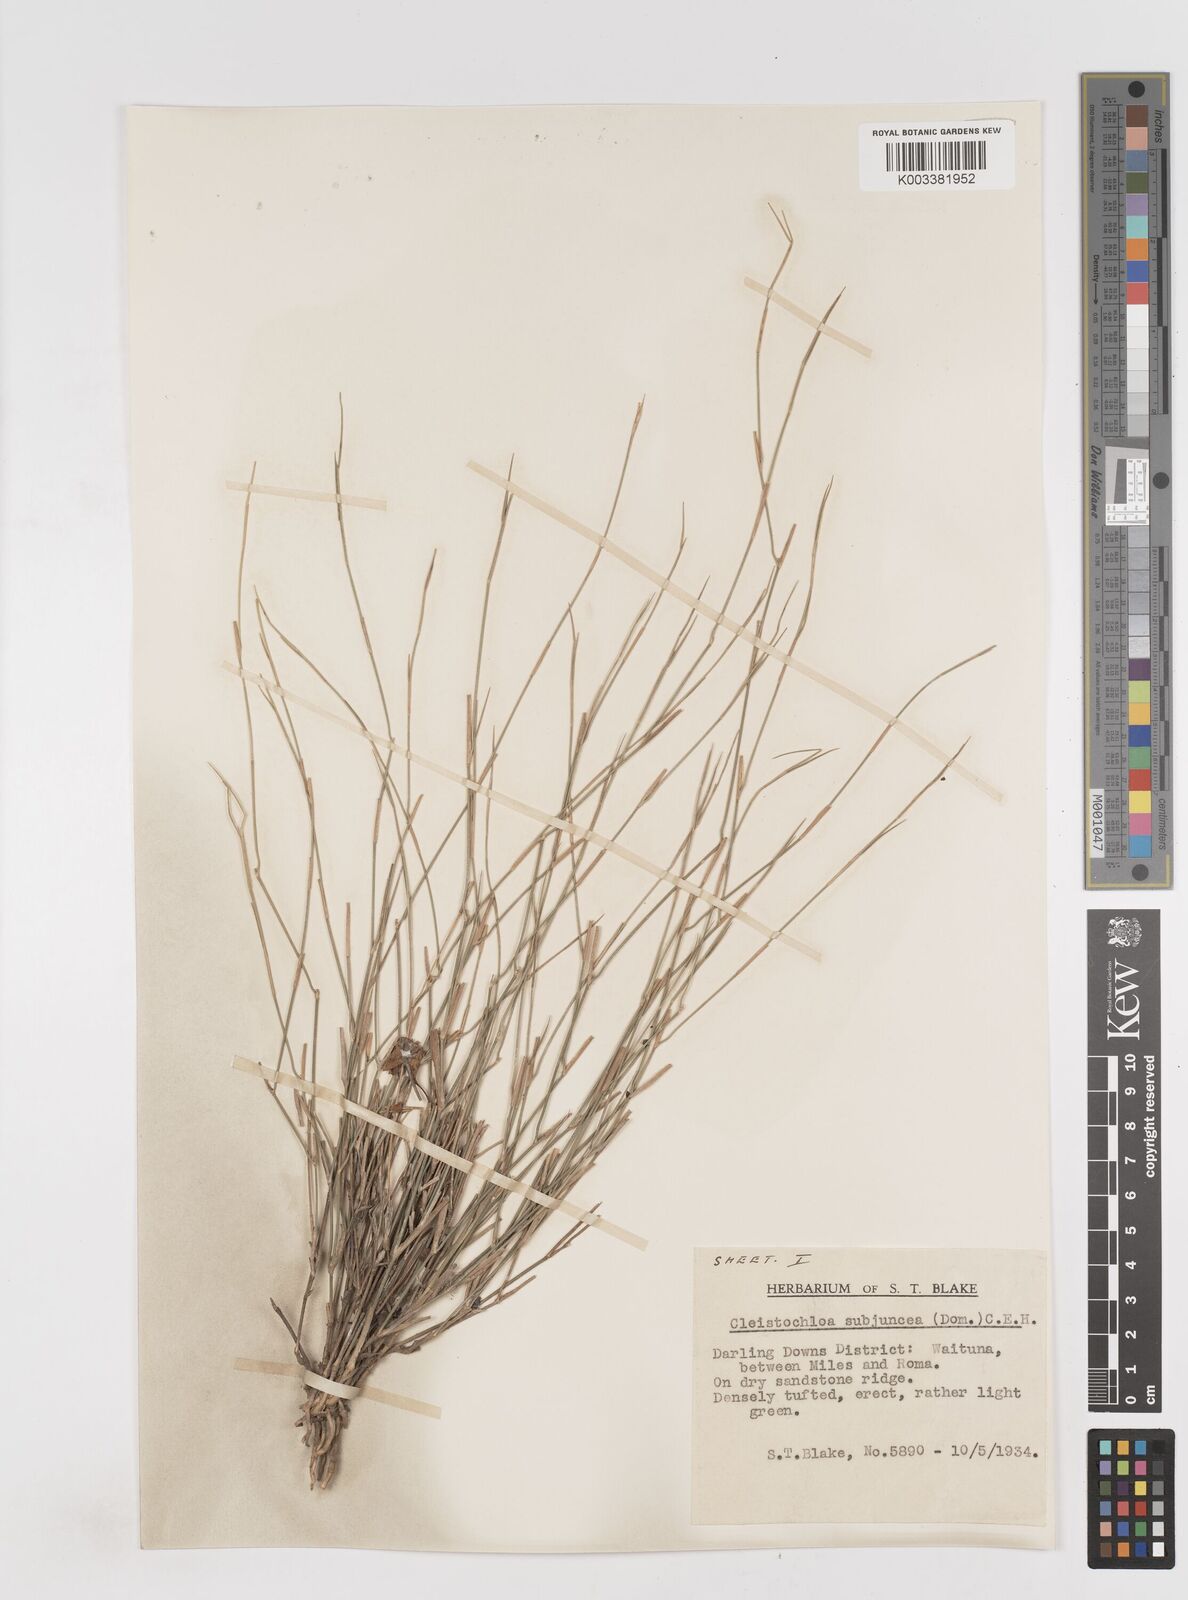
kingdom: Plantae
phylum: Tracheophyta
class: Liliopsida
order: Poales
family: Poaceae
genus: Cleistochloa
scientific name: Cleistochloa subjuncea
